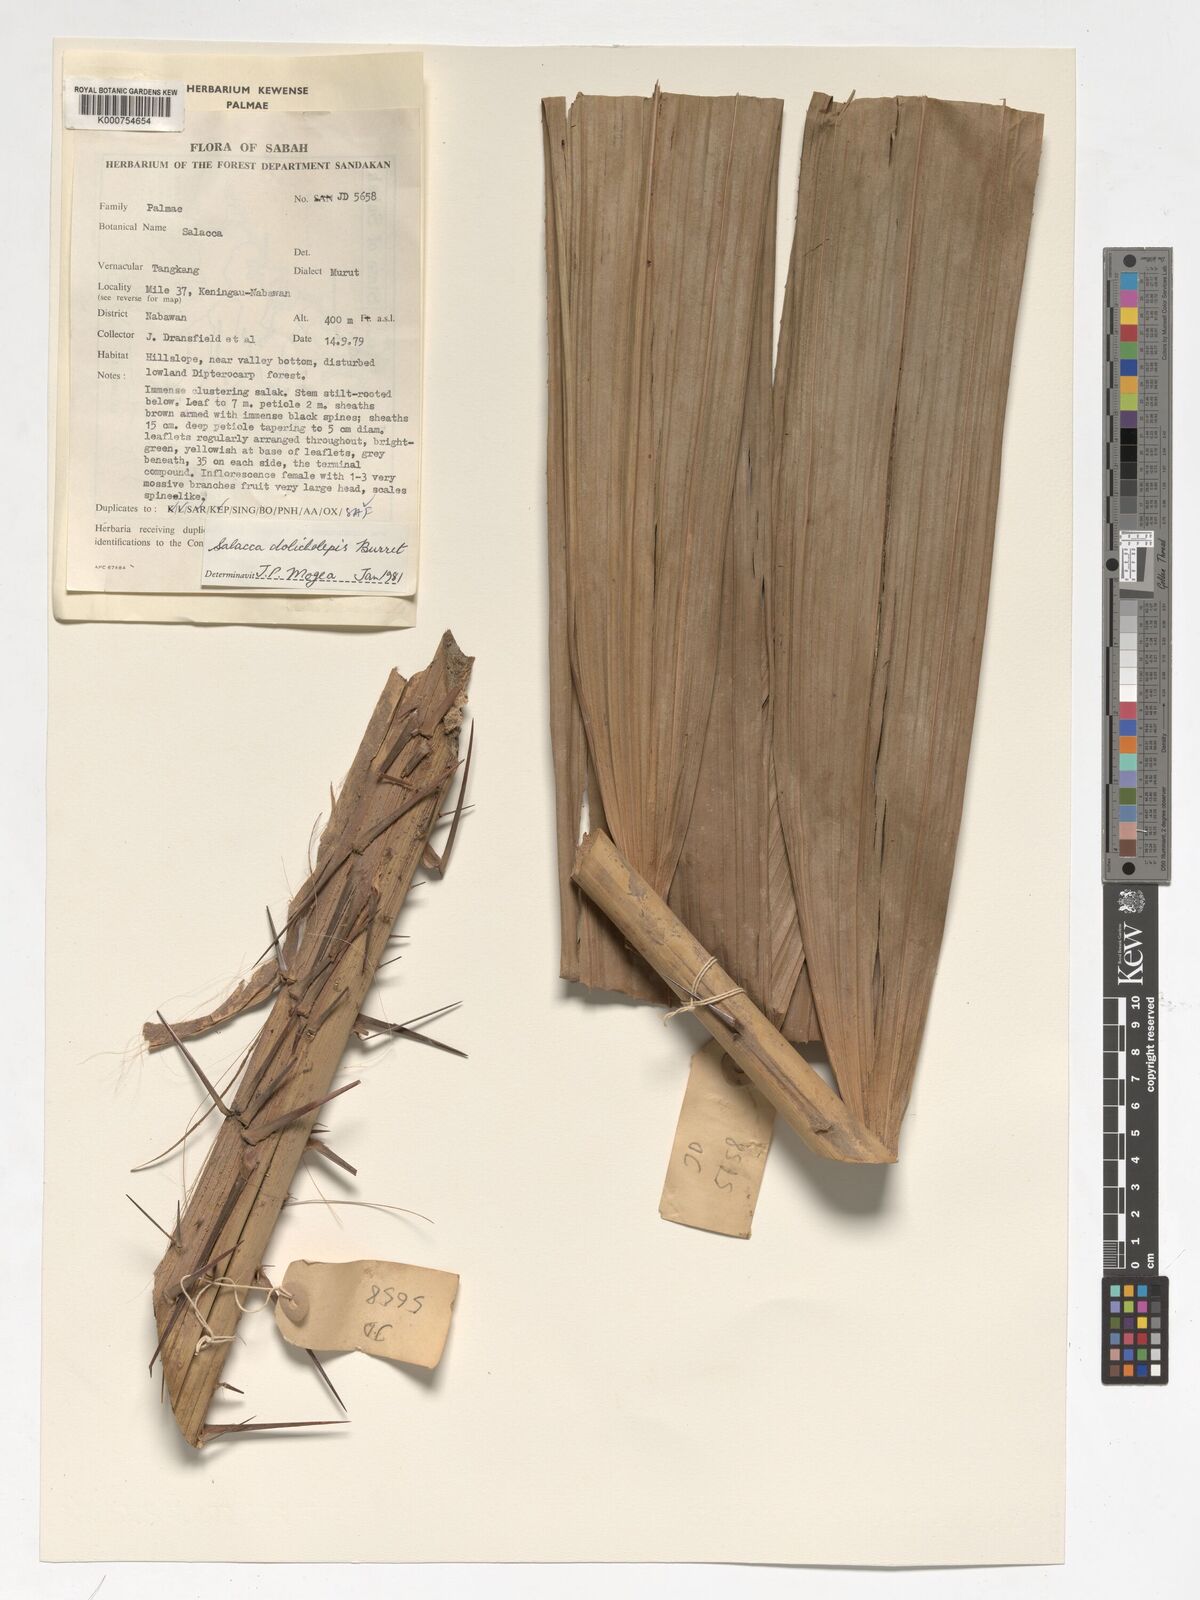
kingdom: Plantae
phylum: Tracheophyta
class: Liliopsida
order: Arecales
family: Arecaceae
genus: Salacca
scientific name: Salacca dolicholepis
